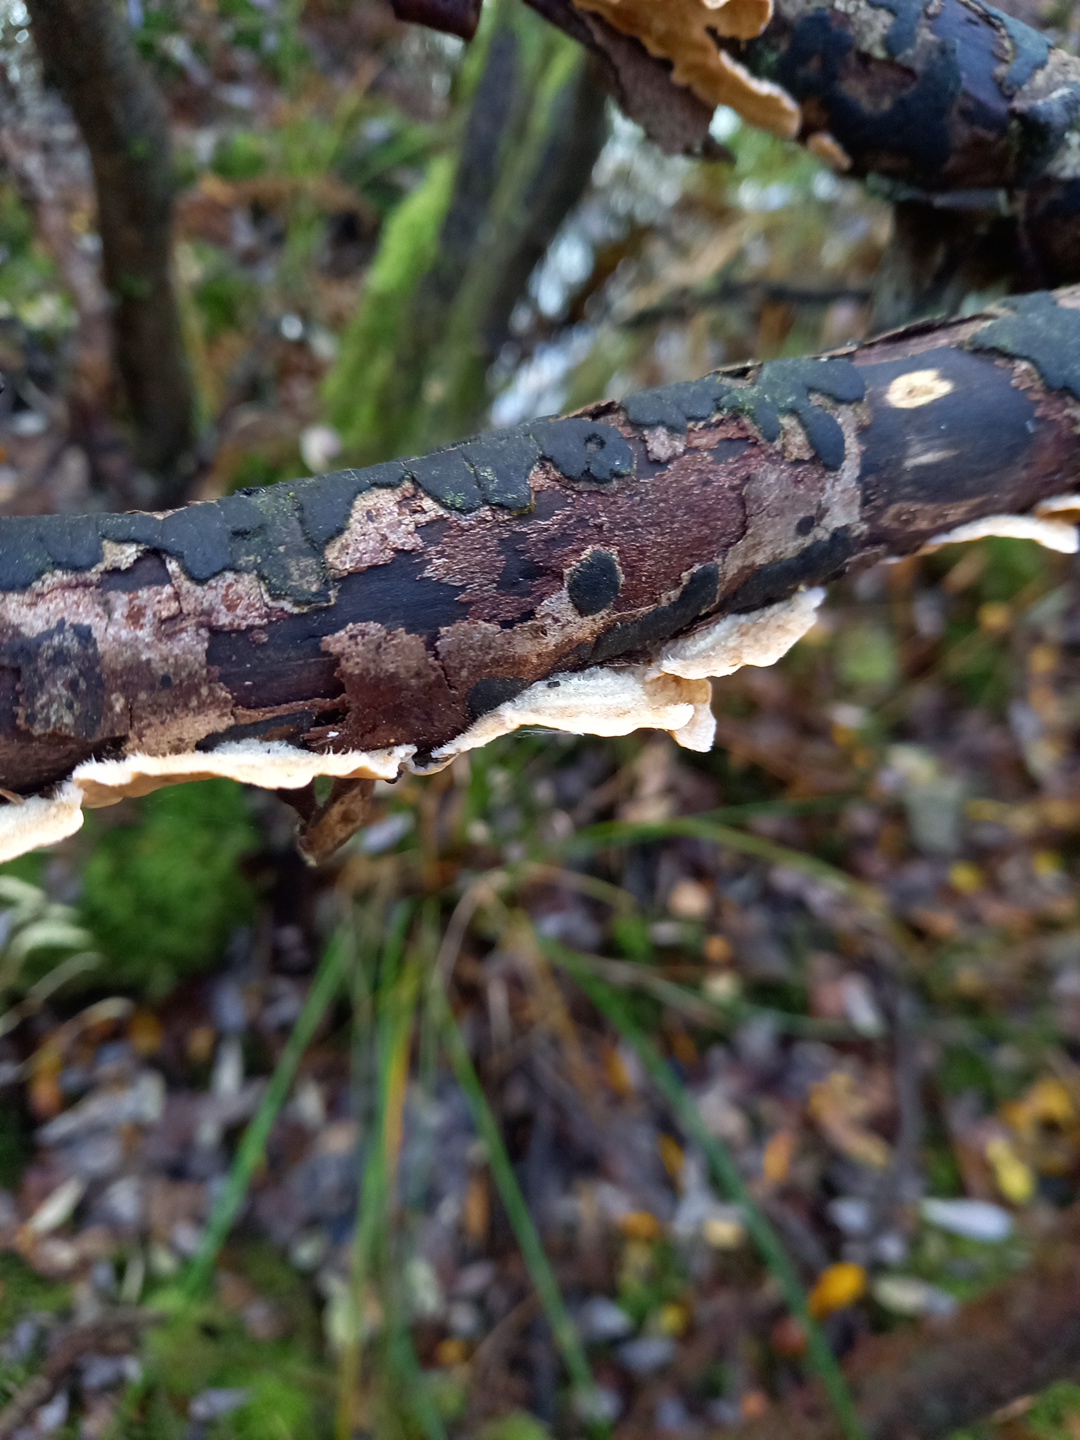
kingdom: Fungi
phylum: Basidiomycota
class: Agaricomycetes
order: Russulales
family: Stereaceae
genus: Stereum
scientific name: Stereum hirsutum
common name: håret lædersvamp
